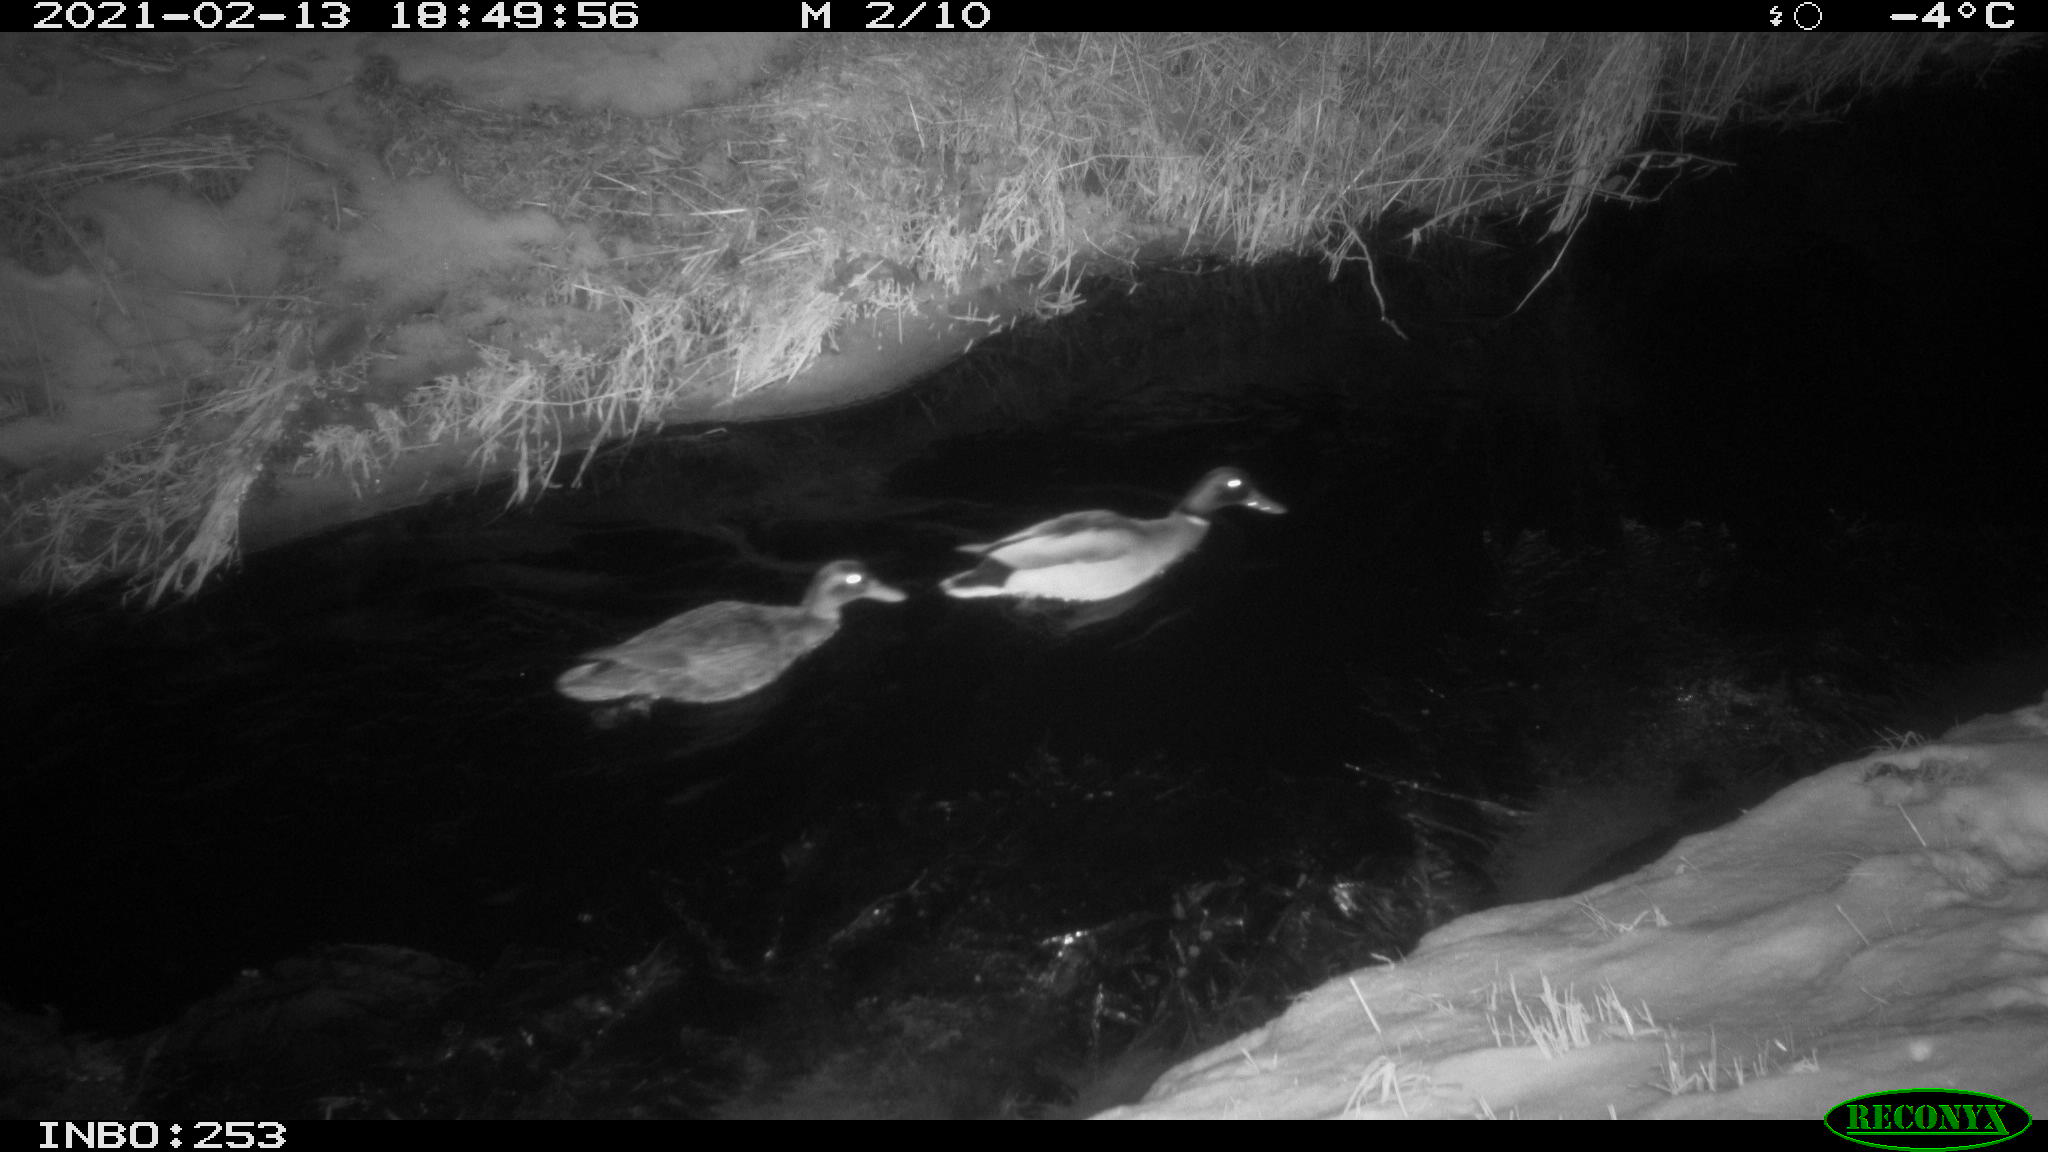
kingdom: Animalia
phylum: Chordata
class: Aves
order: Anseriformes
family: Anatidae
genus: Anas
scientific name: Anas platyrhynchos
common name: Mallard
